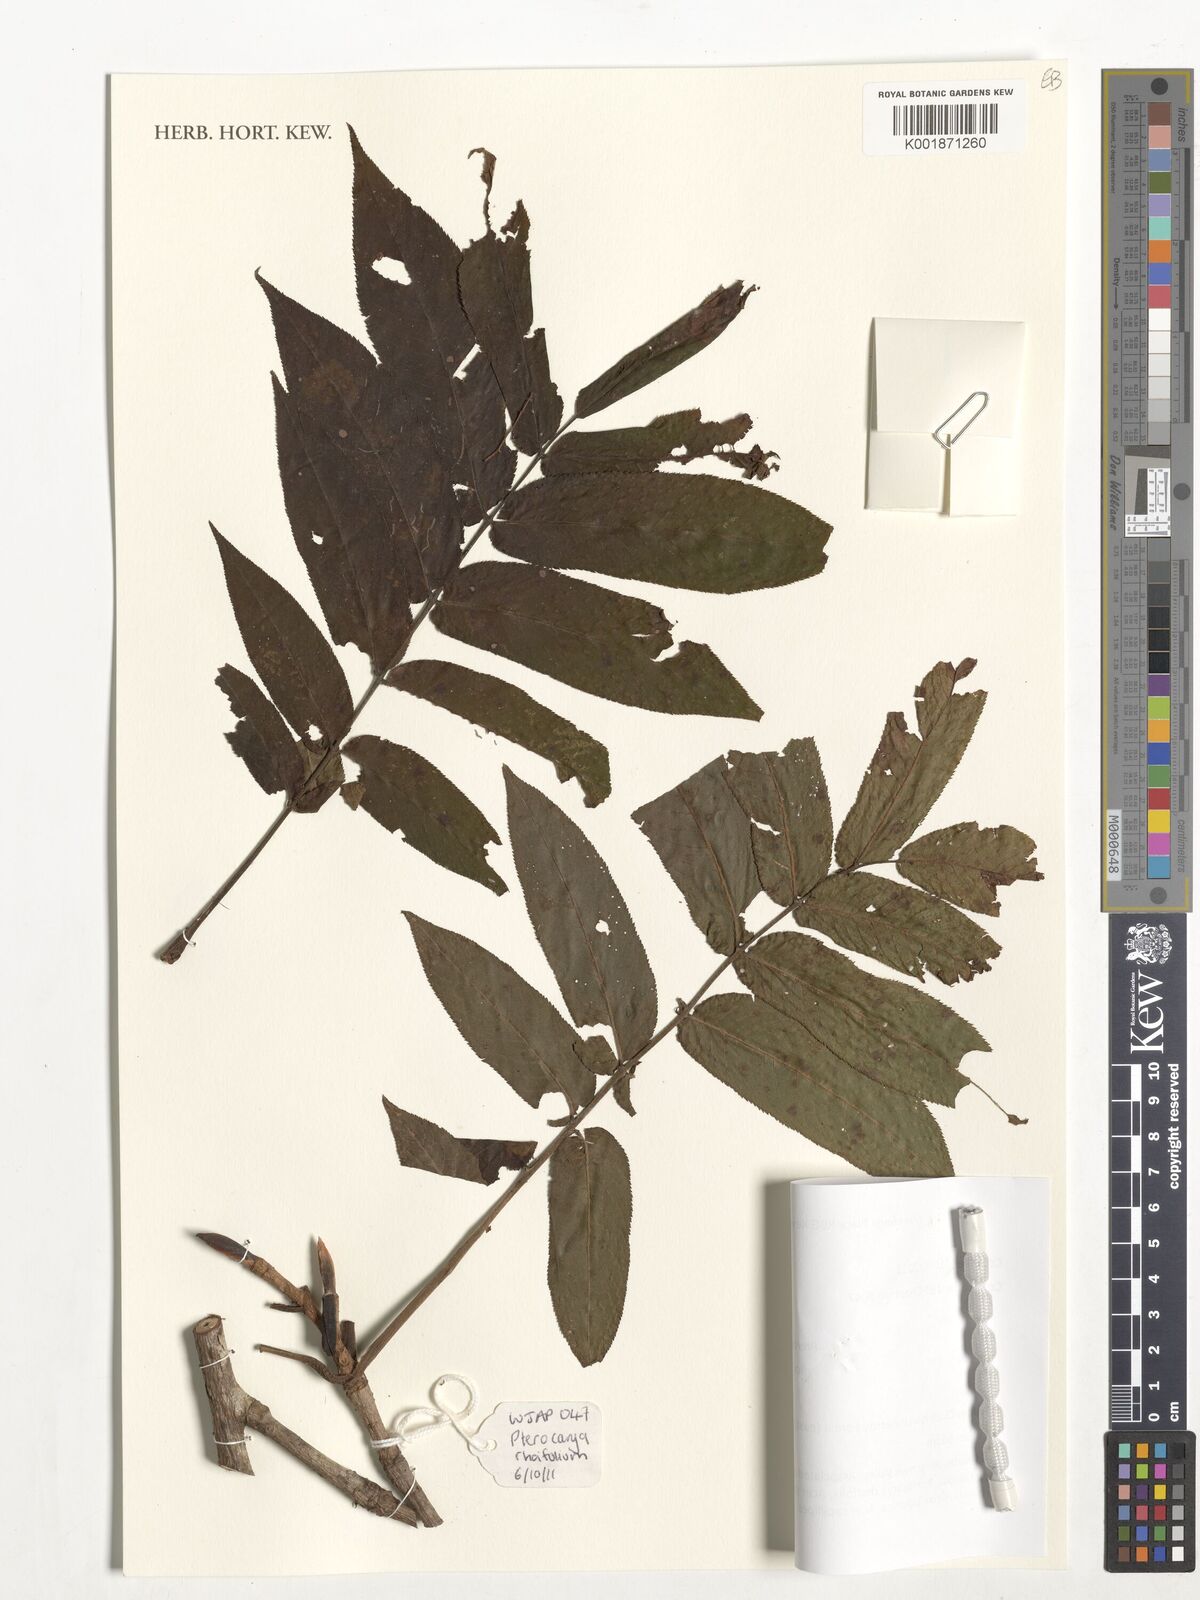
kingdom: Plantae
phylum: Tracheophyta
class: Magnoliopsida
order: Fagales
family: Juglandaceae
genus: Pterocarya
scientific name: Pterocarya rhoifolia
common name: Japanese wingnut
